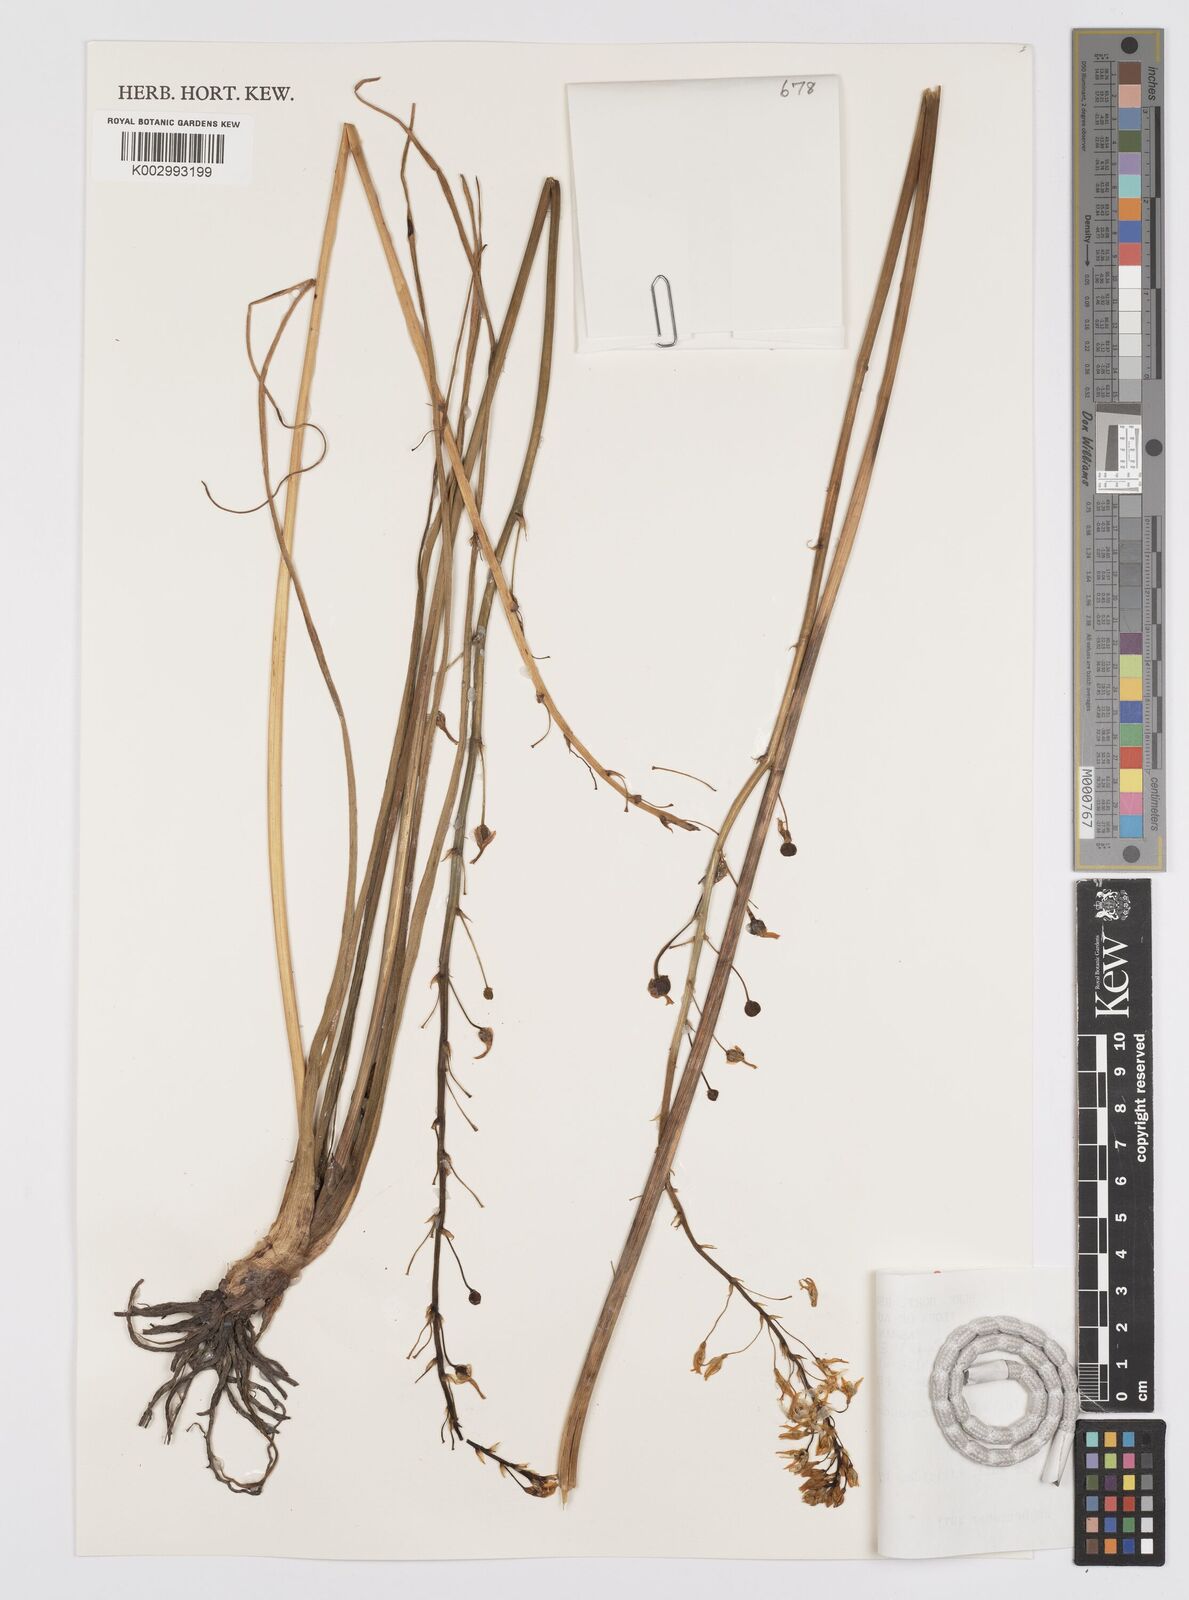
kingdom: Plantae
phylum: Tracheophyta
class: Liliopsida
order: Asparagales
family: Asphodelaceae
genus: Bulbine
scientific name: Bulbine glauca
